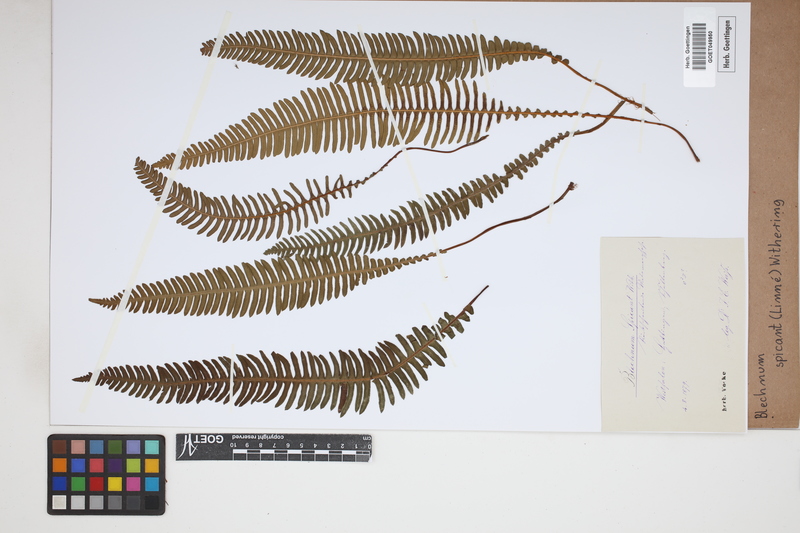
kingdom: Plantae
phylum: Tracheophyta
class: Polypodiopsida
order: Polypodiales
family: Blechnaceae
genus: Struthiopteris
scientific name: Struthiopteris spicant
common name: Deer fern
